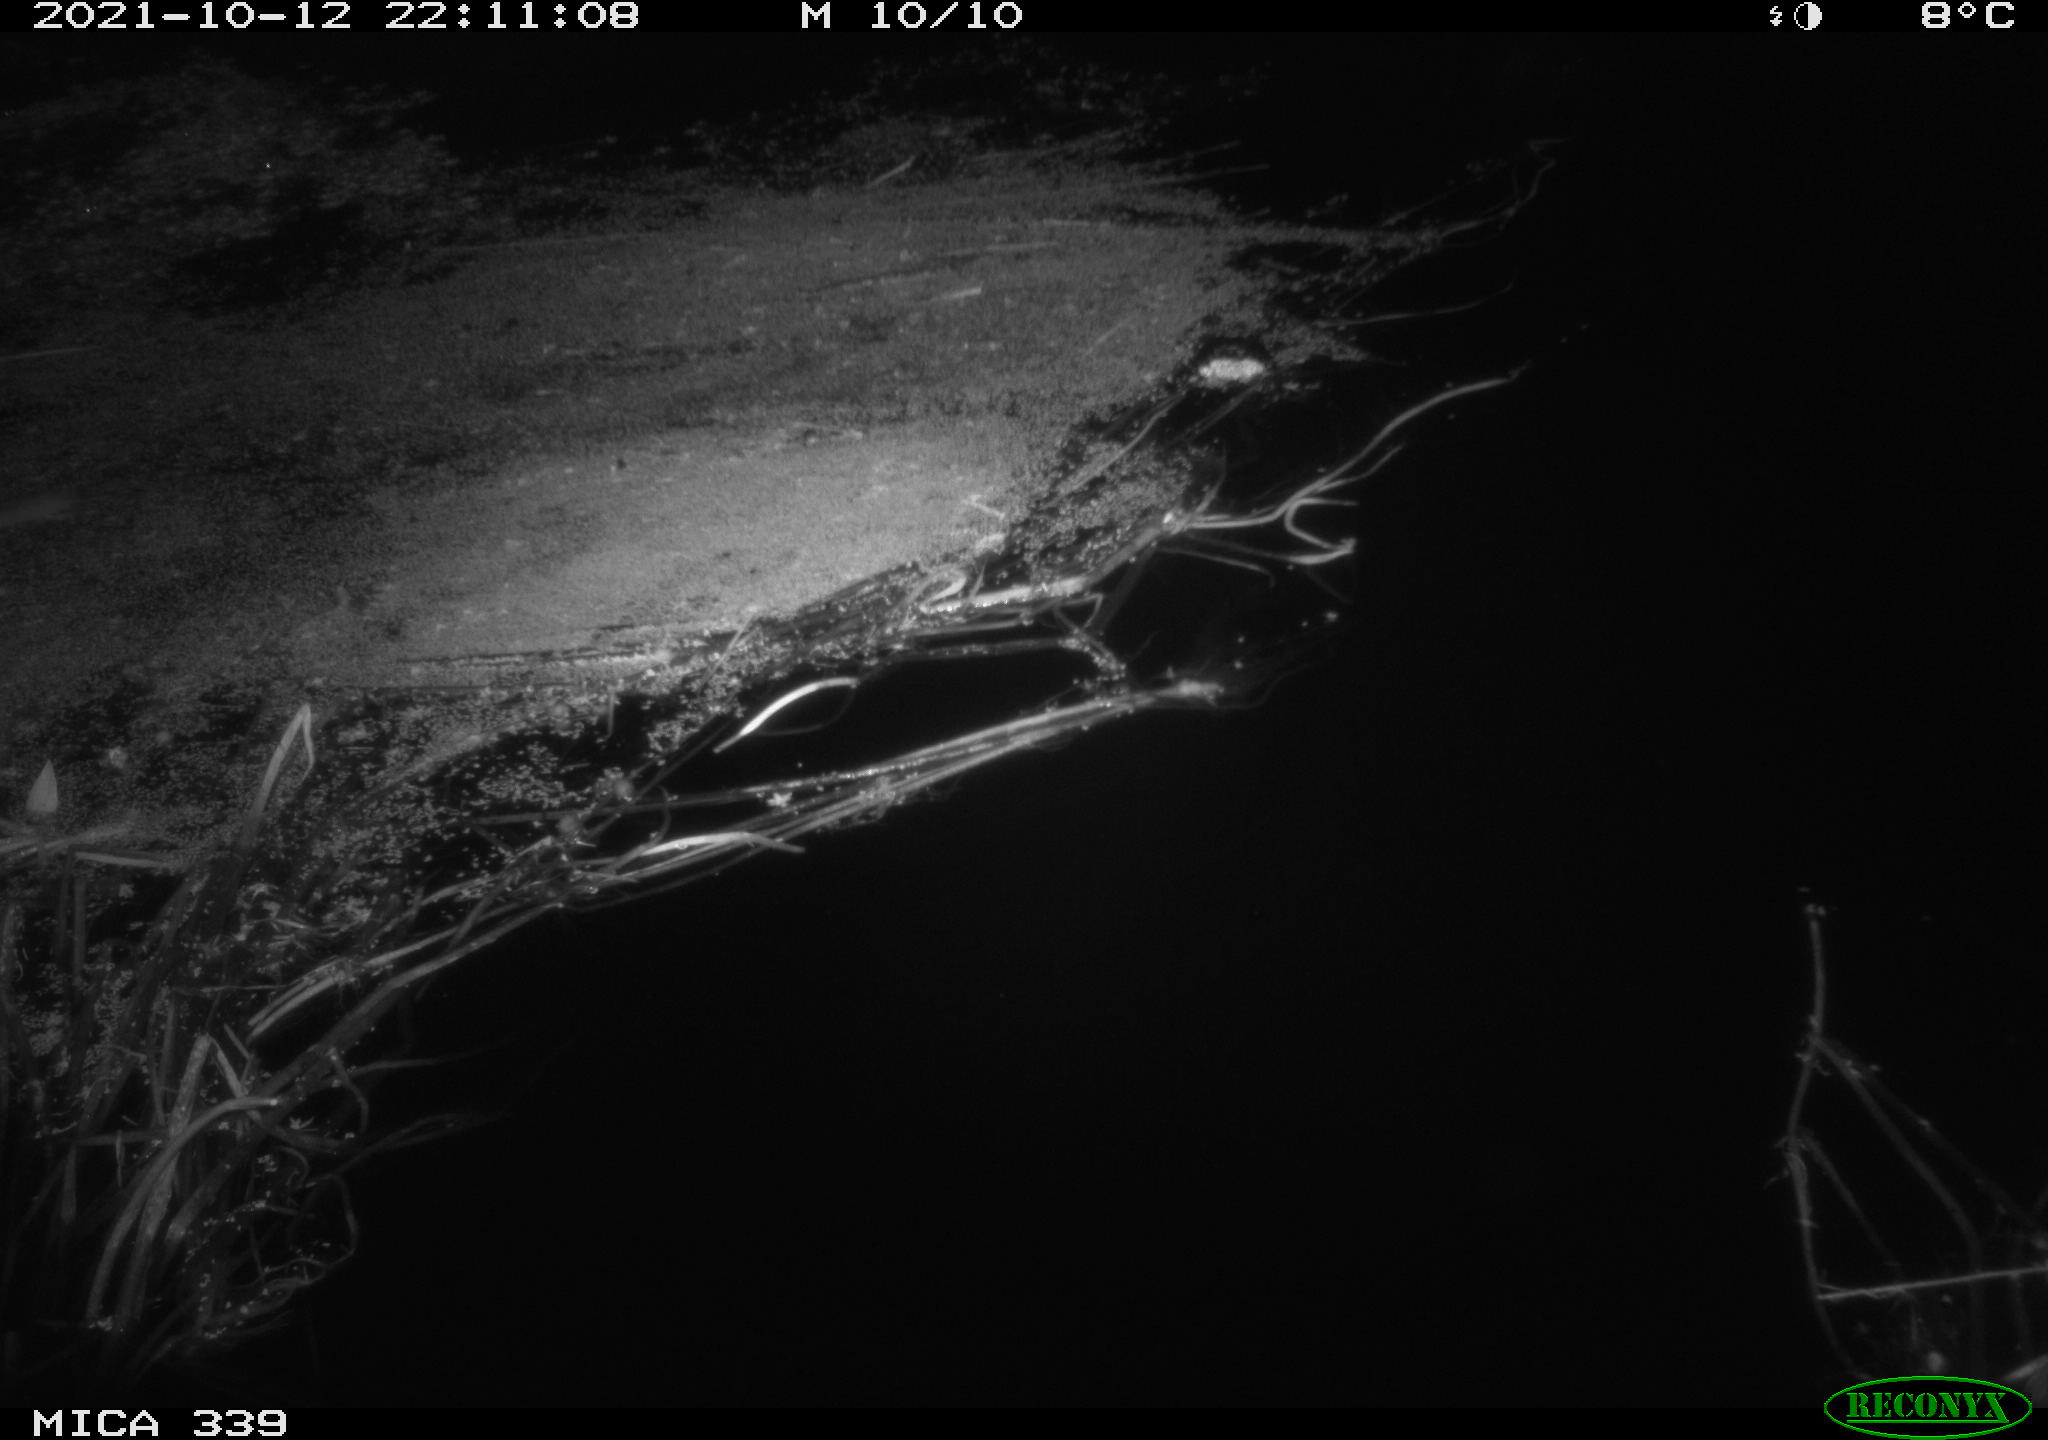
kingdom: Animalia
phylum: Chordata
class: Mammalia
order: Rodentia
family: Muridae
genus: Rattus
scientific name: Rattus norvegicus
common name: Brown rat
